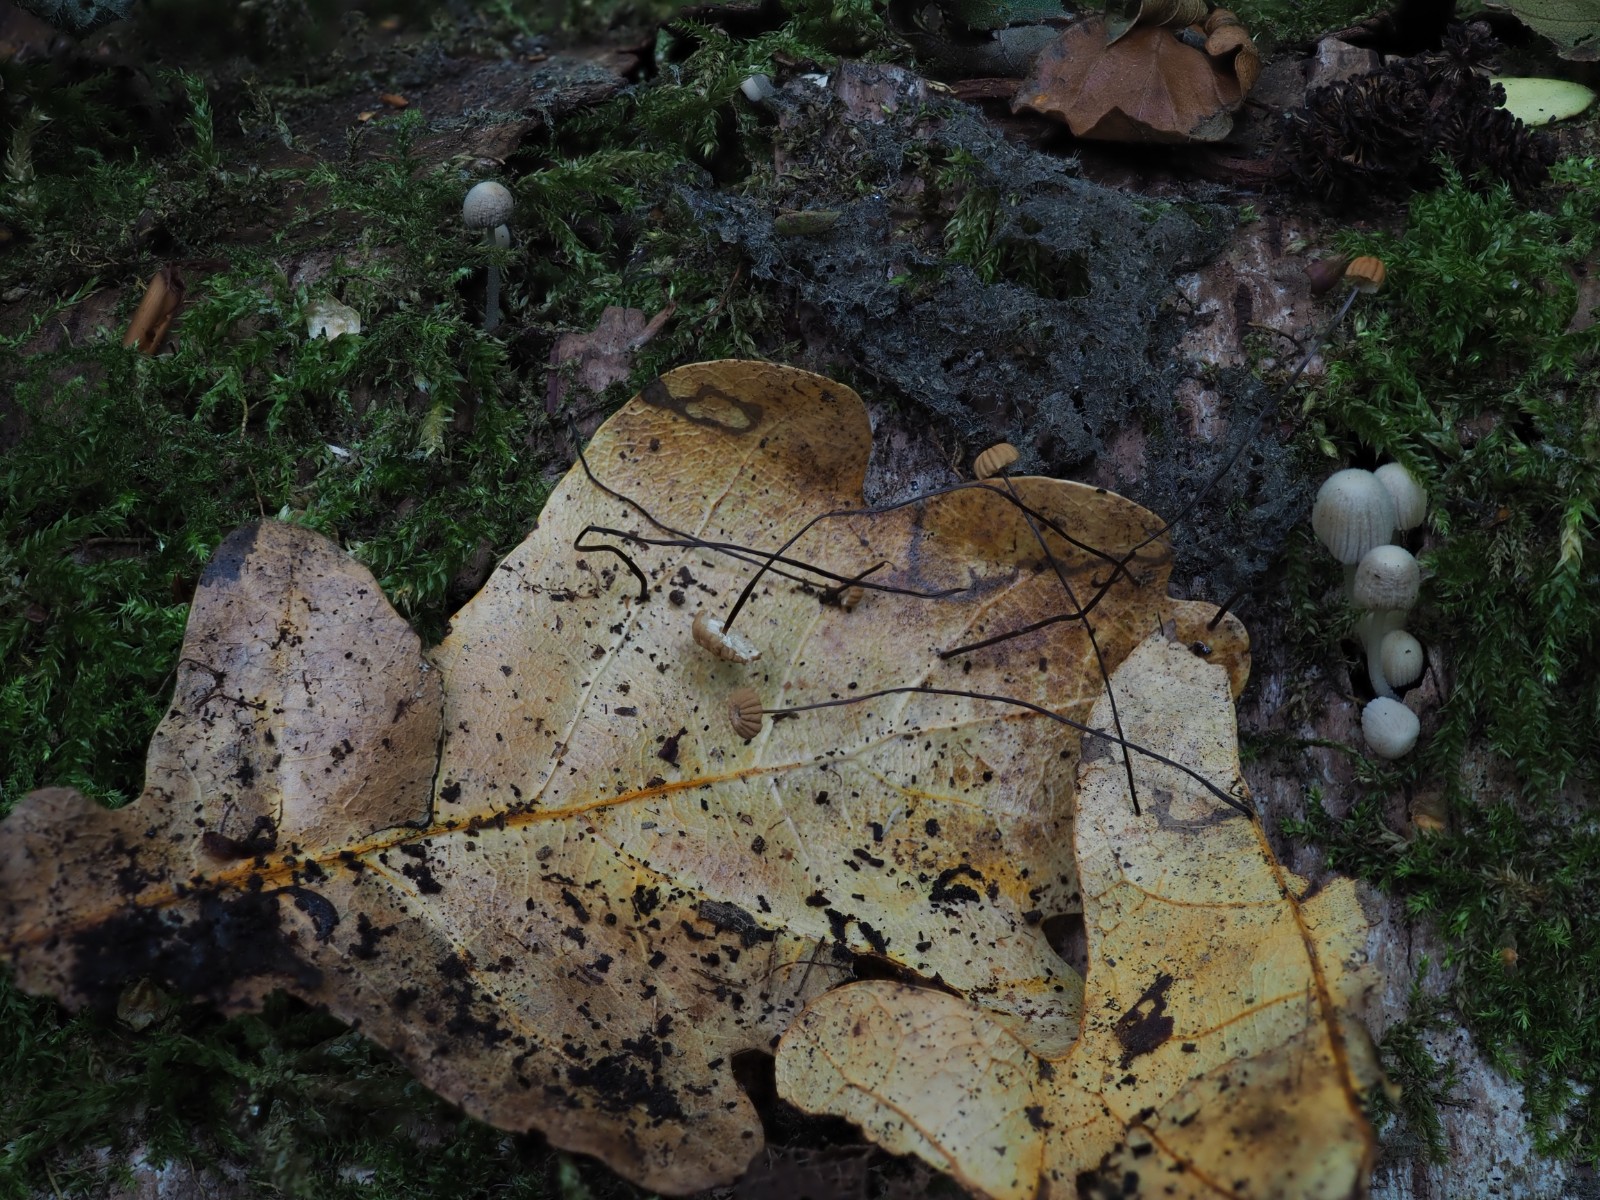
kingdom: Fungi
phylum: Basidiomycota
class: Agaricomycetes
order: Agaricales
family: Marasmiaceae
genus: Marasmius
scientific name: Marasmius bulliardii
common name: furet bruskhat
